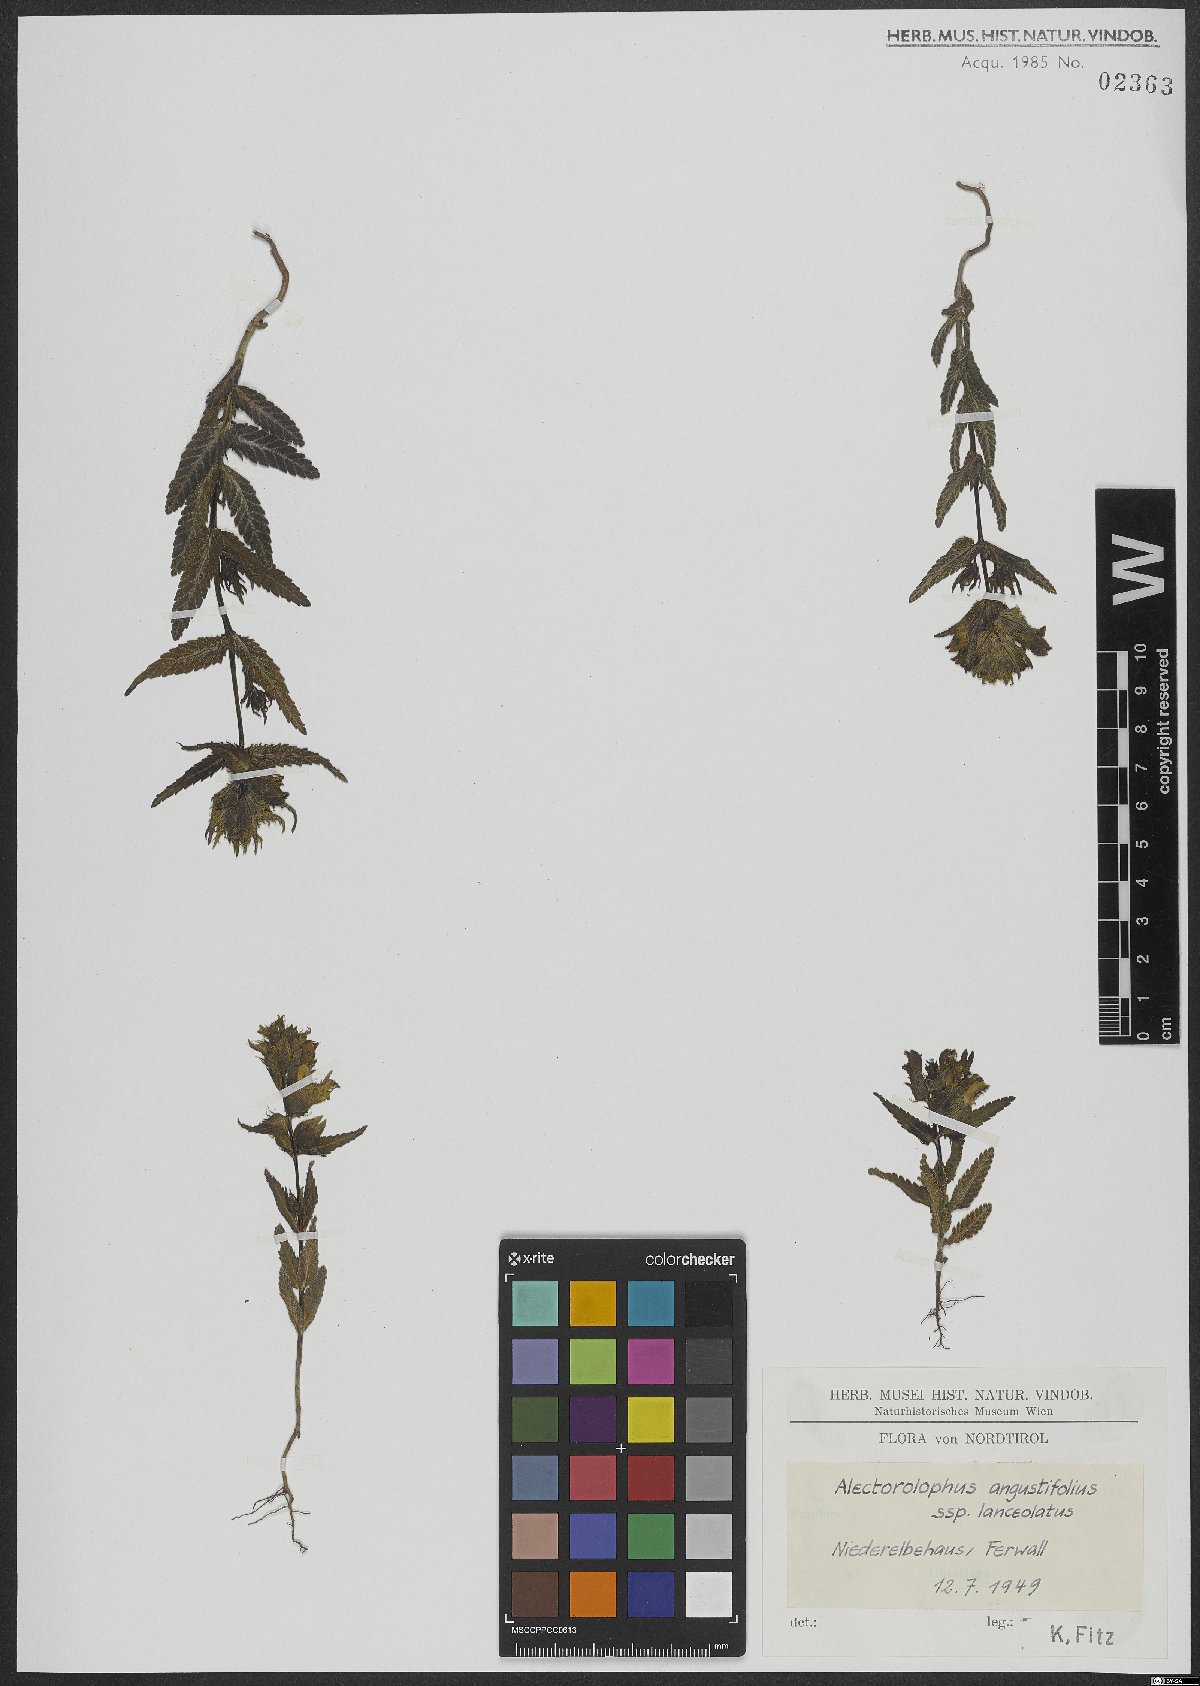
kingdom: Plantae
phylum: Tracheophyta
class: Magnoliopsida
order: Lamiales
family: Orobanchaceae
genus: Rhinanthus
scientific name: Rhinanthus glacialis
